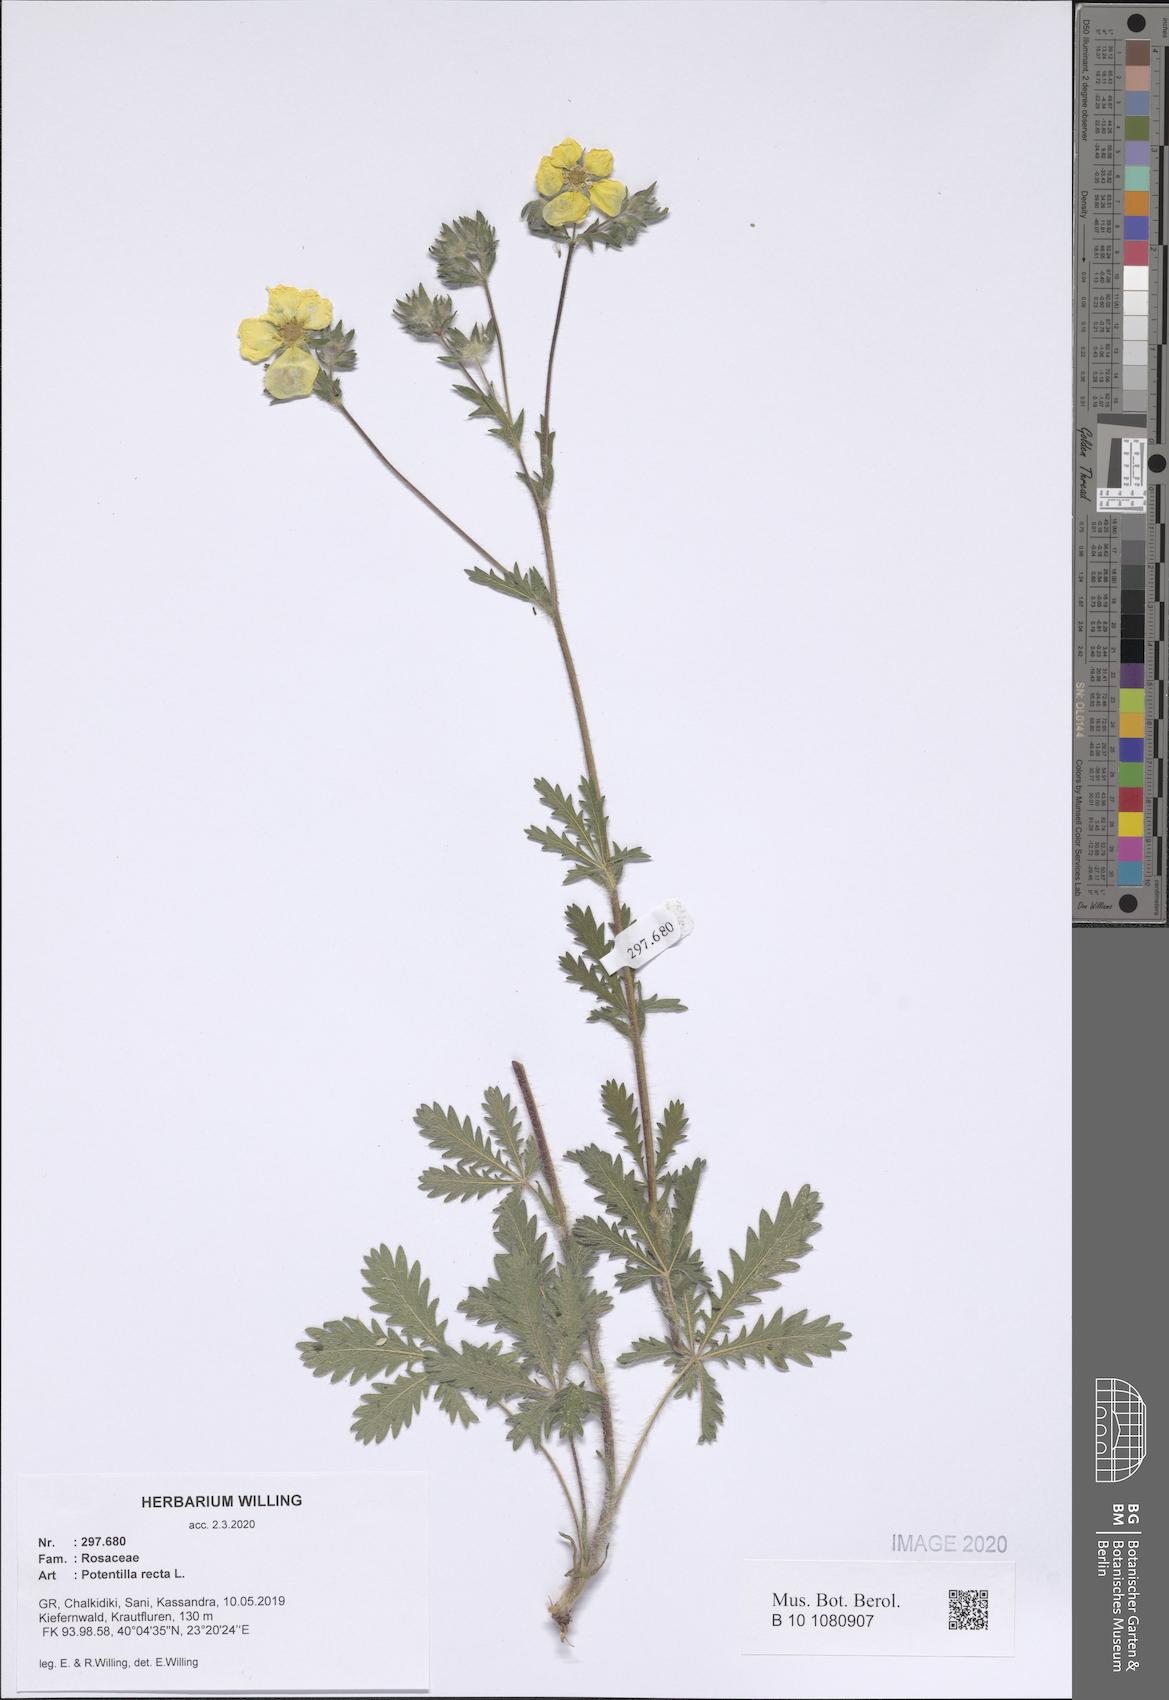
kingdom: Plantae
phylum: Tracheophyta
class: Magnoliopsida
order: Rosales
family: Rosaceae
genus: Potentilla
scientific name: Potentilla recta
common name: Sulphur cinquefoil
